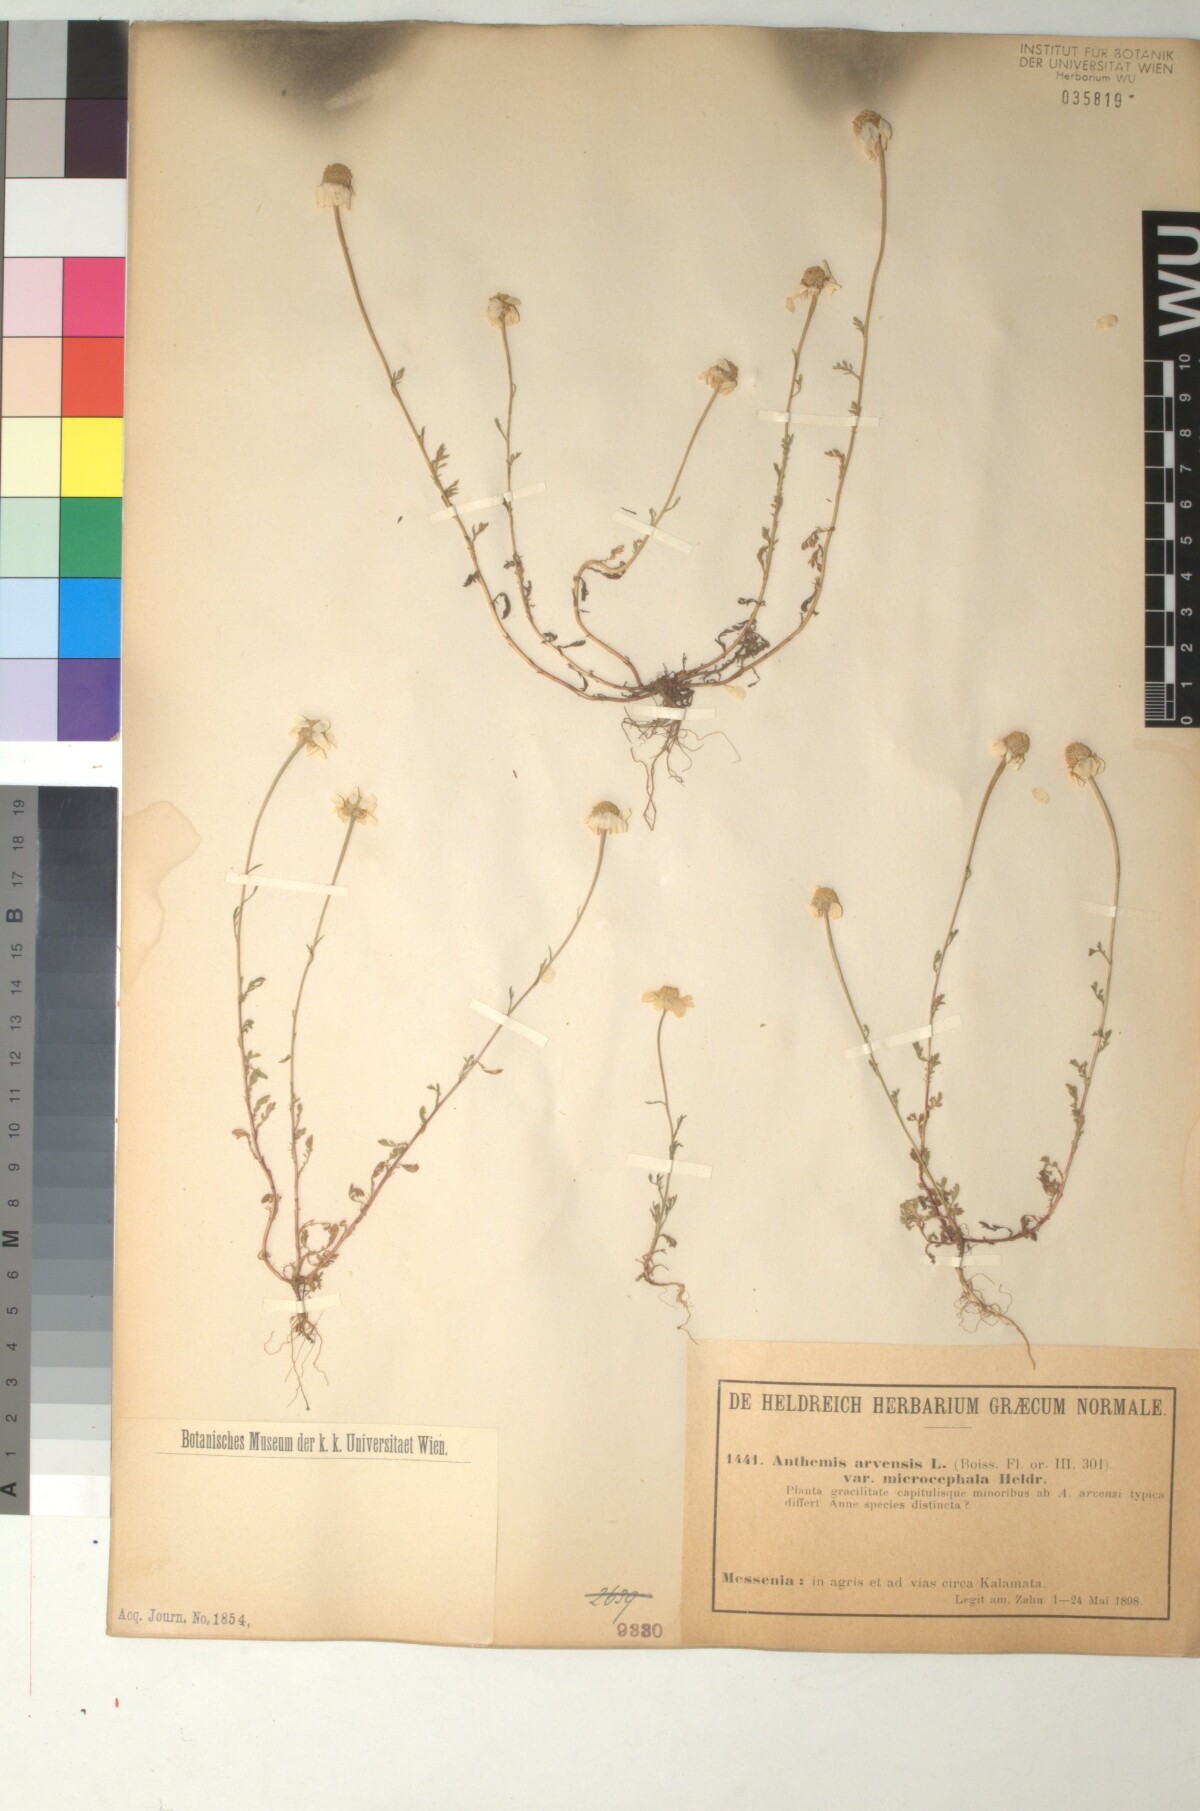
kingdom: Plantae
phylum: Tracheophyta
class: Magnoliopsida
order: Asterales
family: Asteraceae
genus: Anthemis
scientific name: Anthemis arvensis
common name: Corn chamomile
